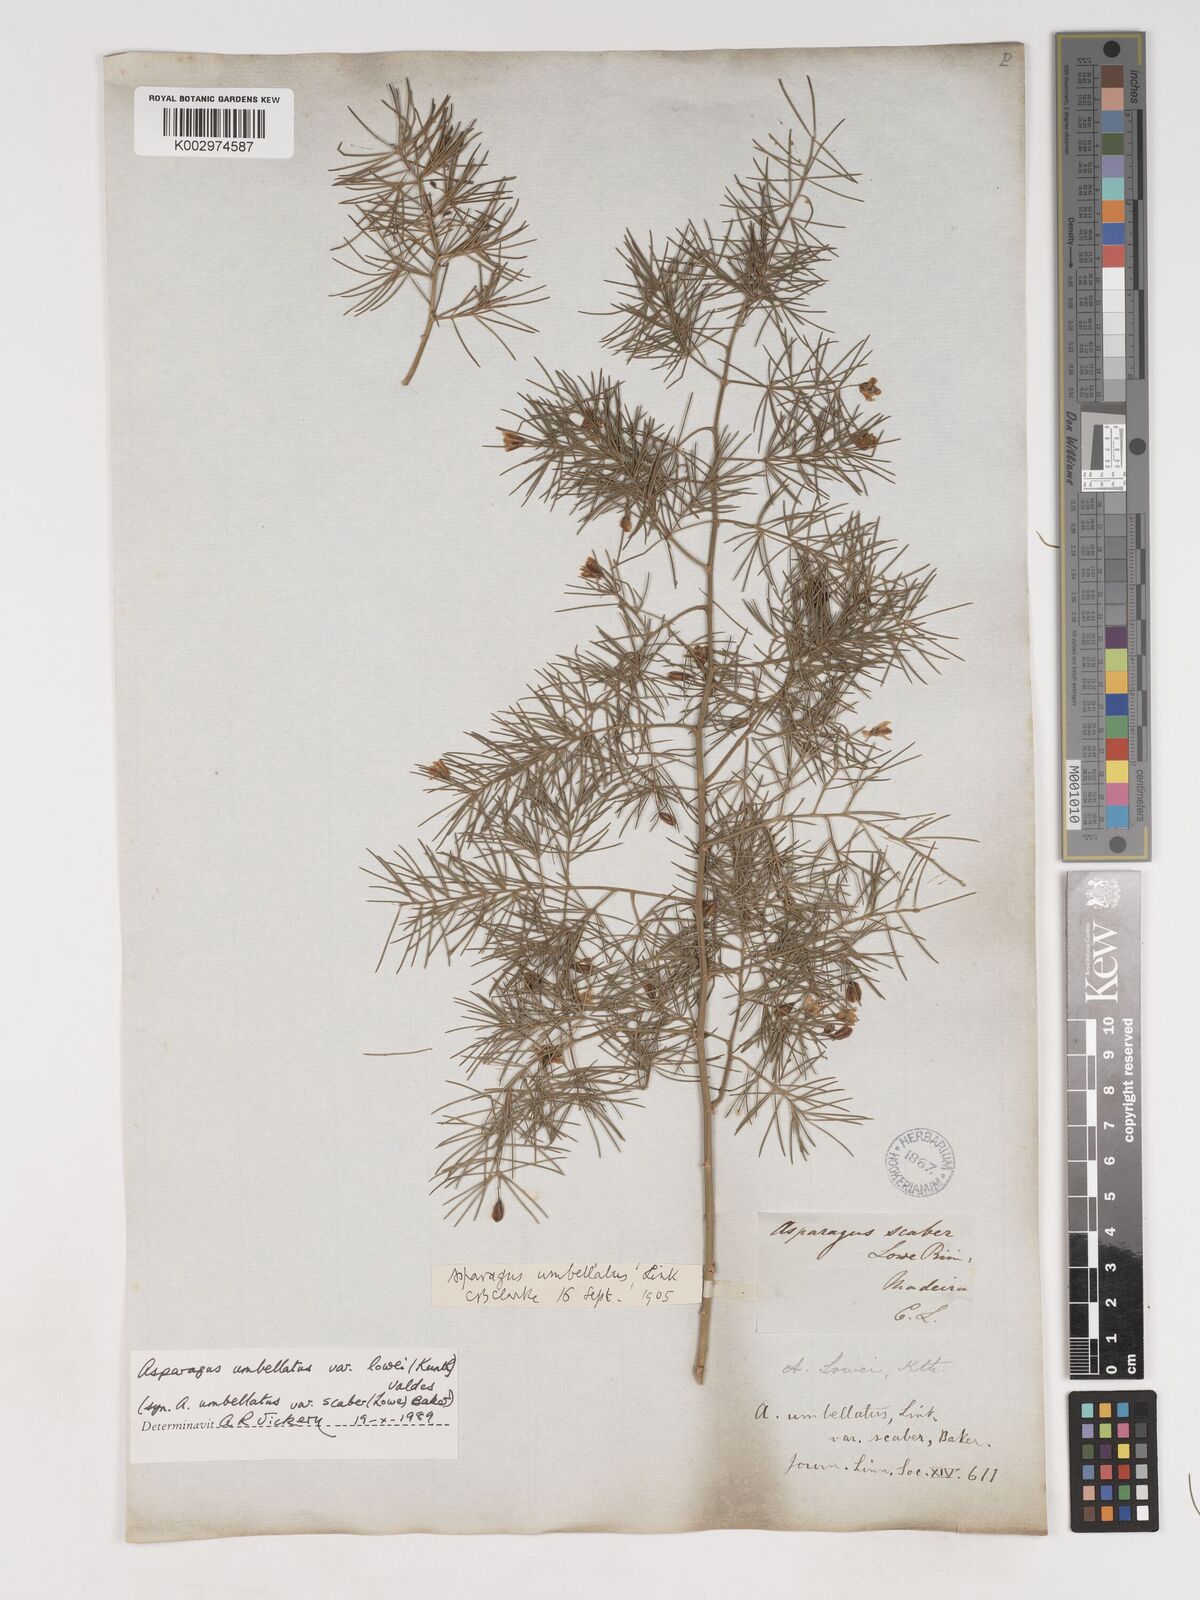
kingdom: Plantae
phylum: Tracheophyta
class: Liliopsida
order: Asparagales
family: Asparagaceae
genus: Asparagus
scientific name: Asparagus umbellatus
